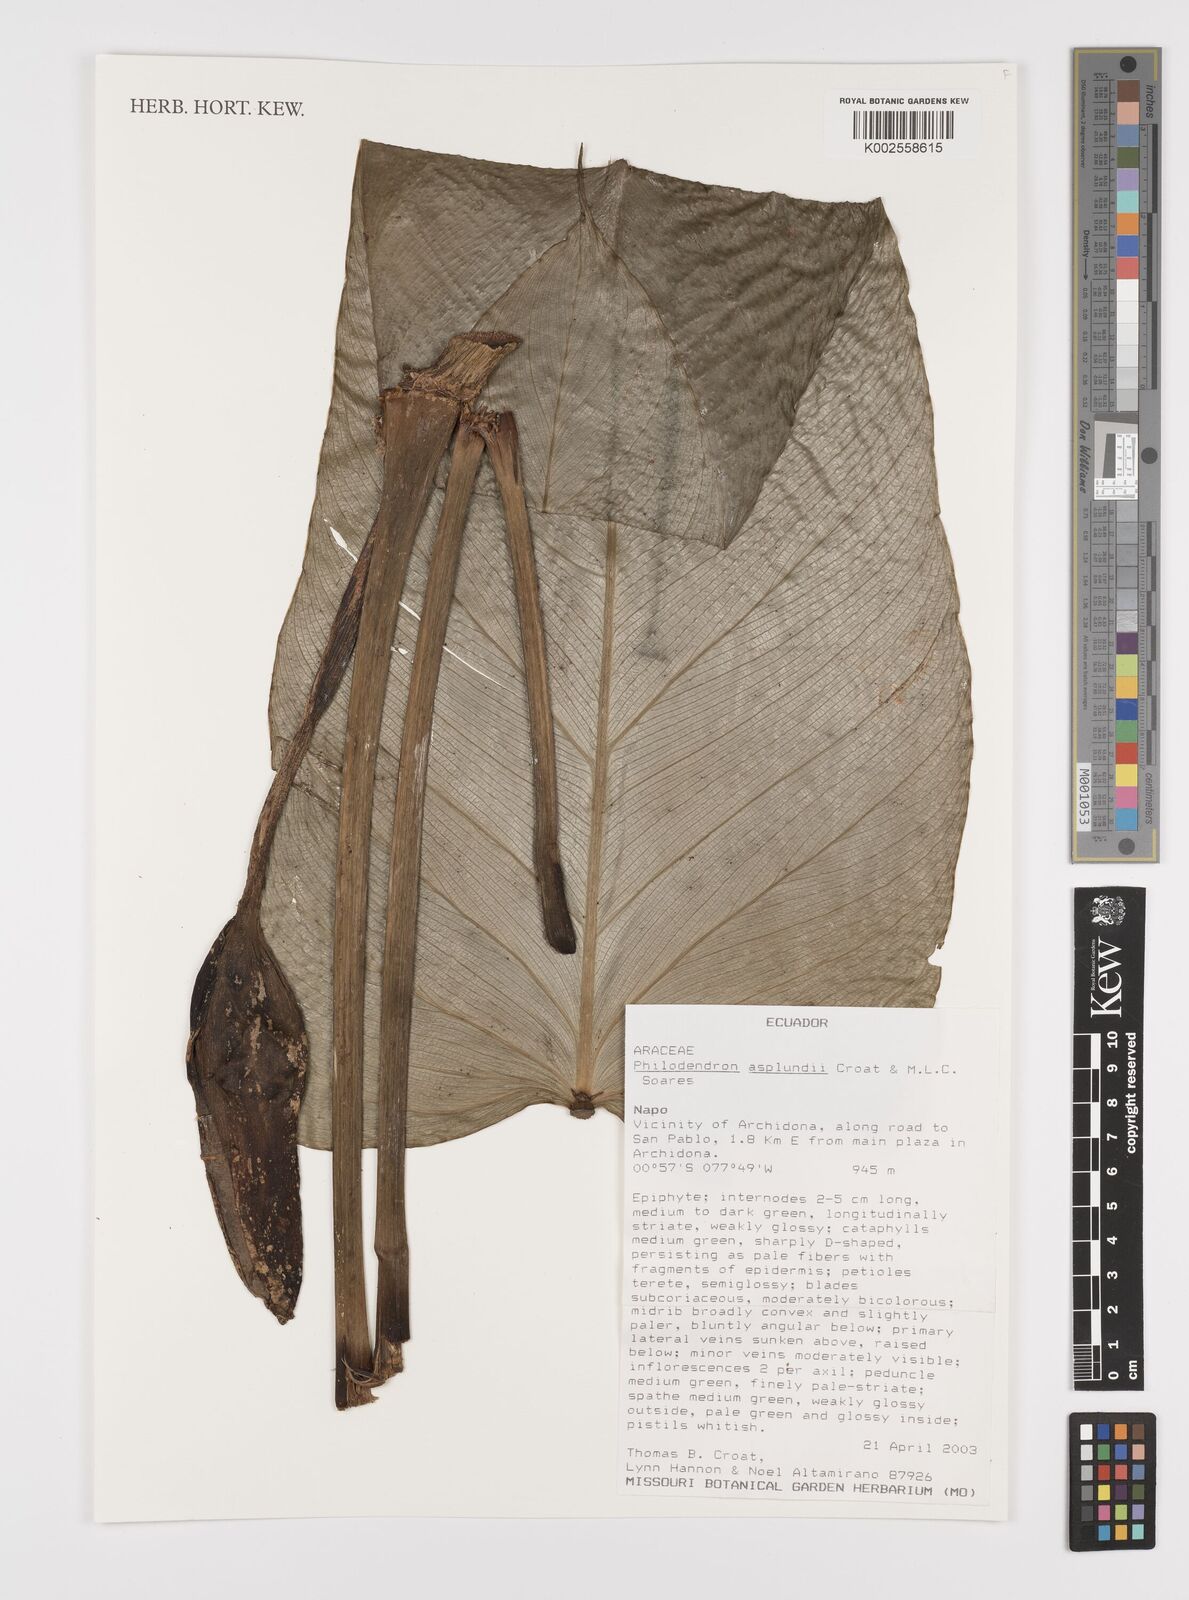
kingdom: Plantae
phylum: Tracheophyta
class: Liliopsida
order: Alismatales
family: Araceae
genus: Philodendron
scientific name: Philodendron asplundii
